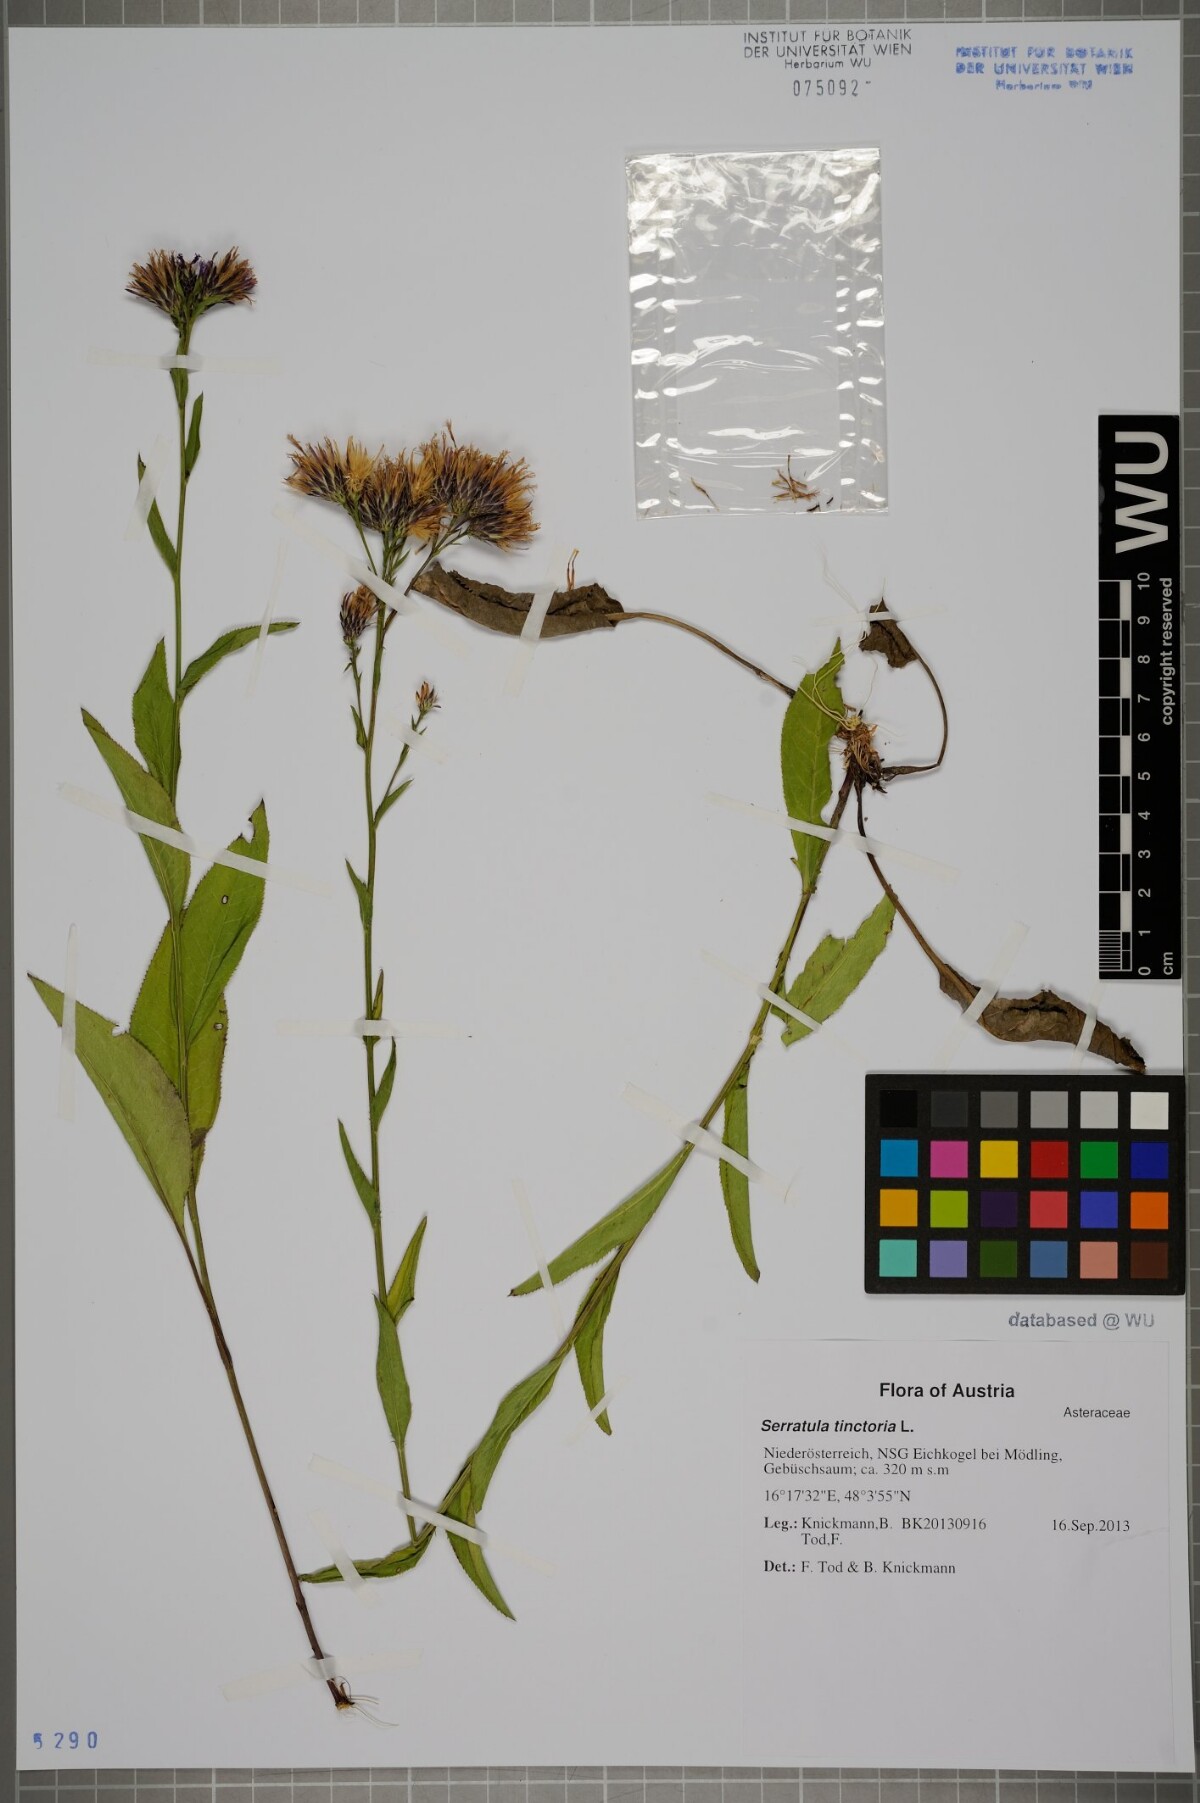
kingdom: Plantae
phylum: Tracheophyta
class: Magnoliopsida
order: Asterales
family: Asteraceae
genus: Serratula
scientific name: Serratula tinctoria
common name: Saw-wort
